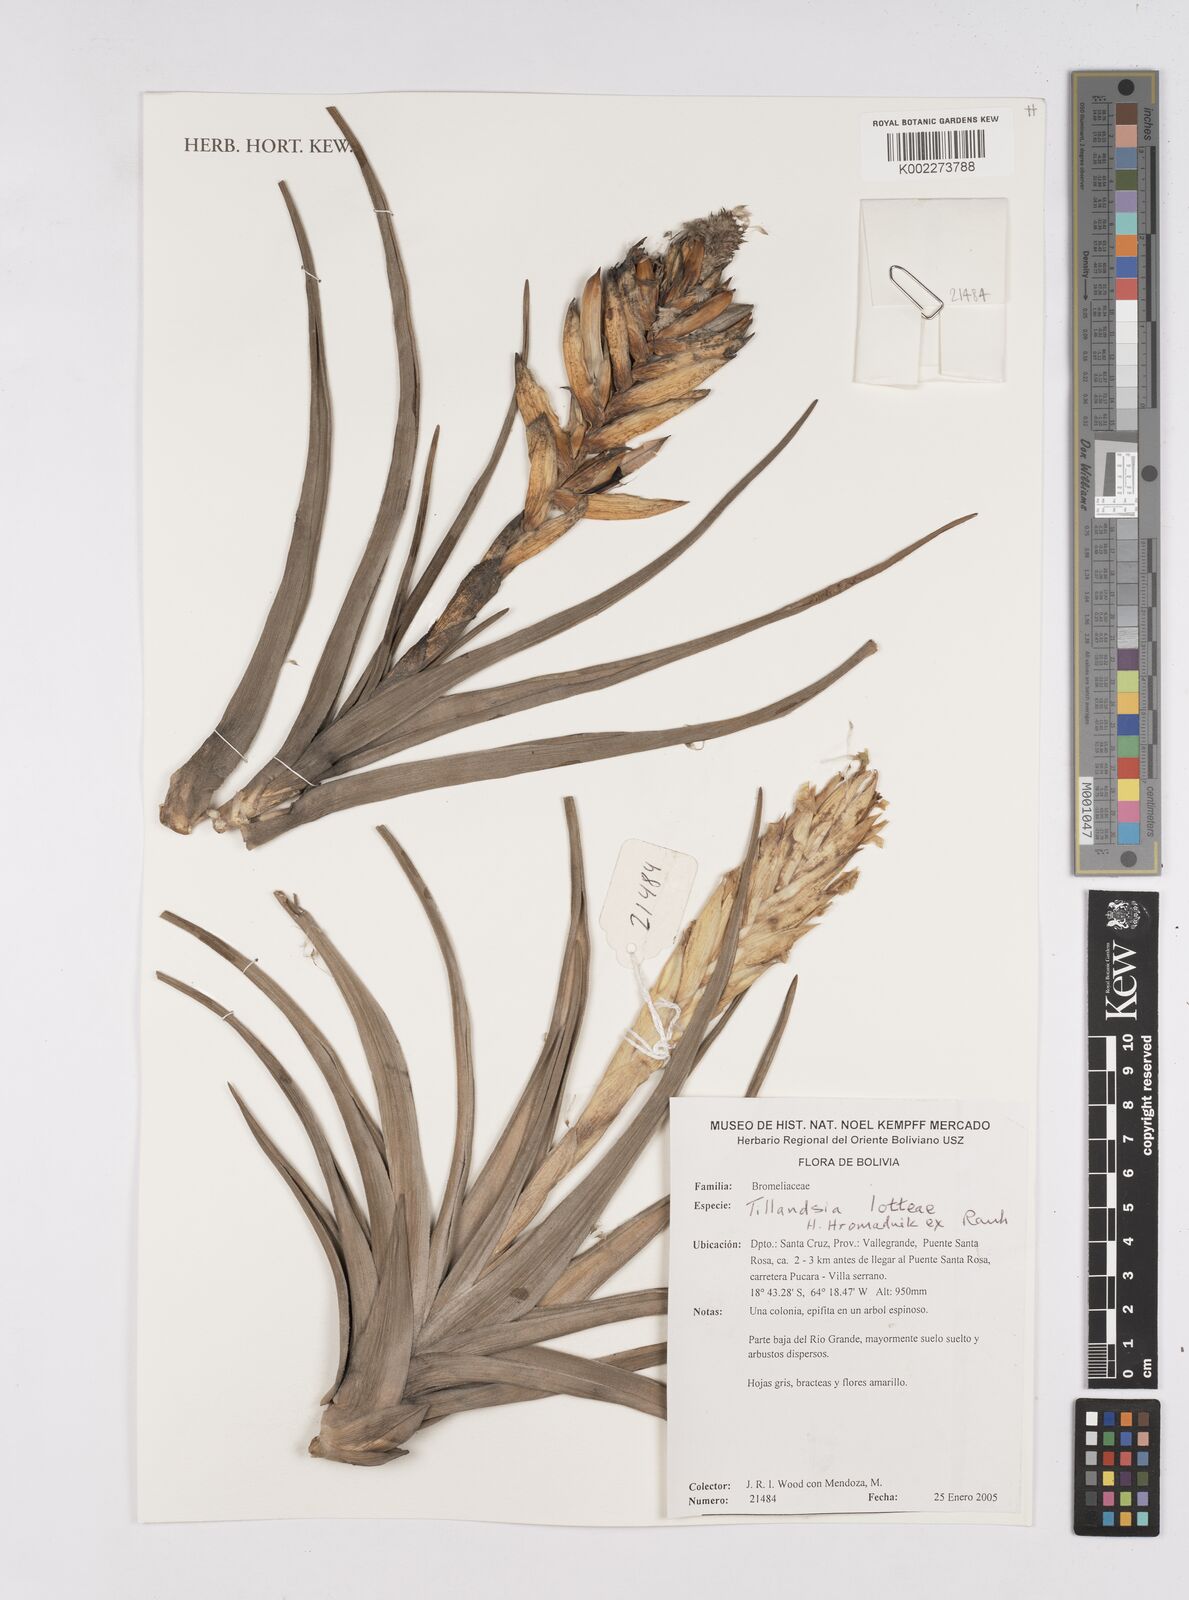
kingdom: Plantae
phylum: Tracheophyta
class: Liliopsida
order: Poales
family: Bromeliaceae
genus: Tillandsia
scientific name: Tillandsia lotteae
